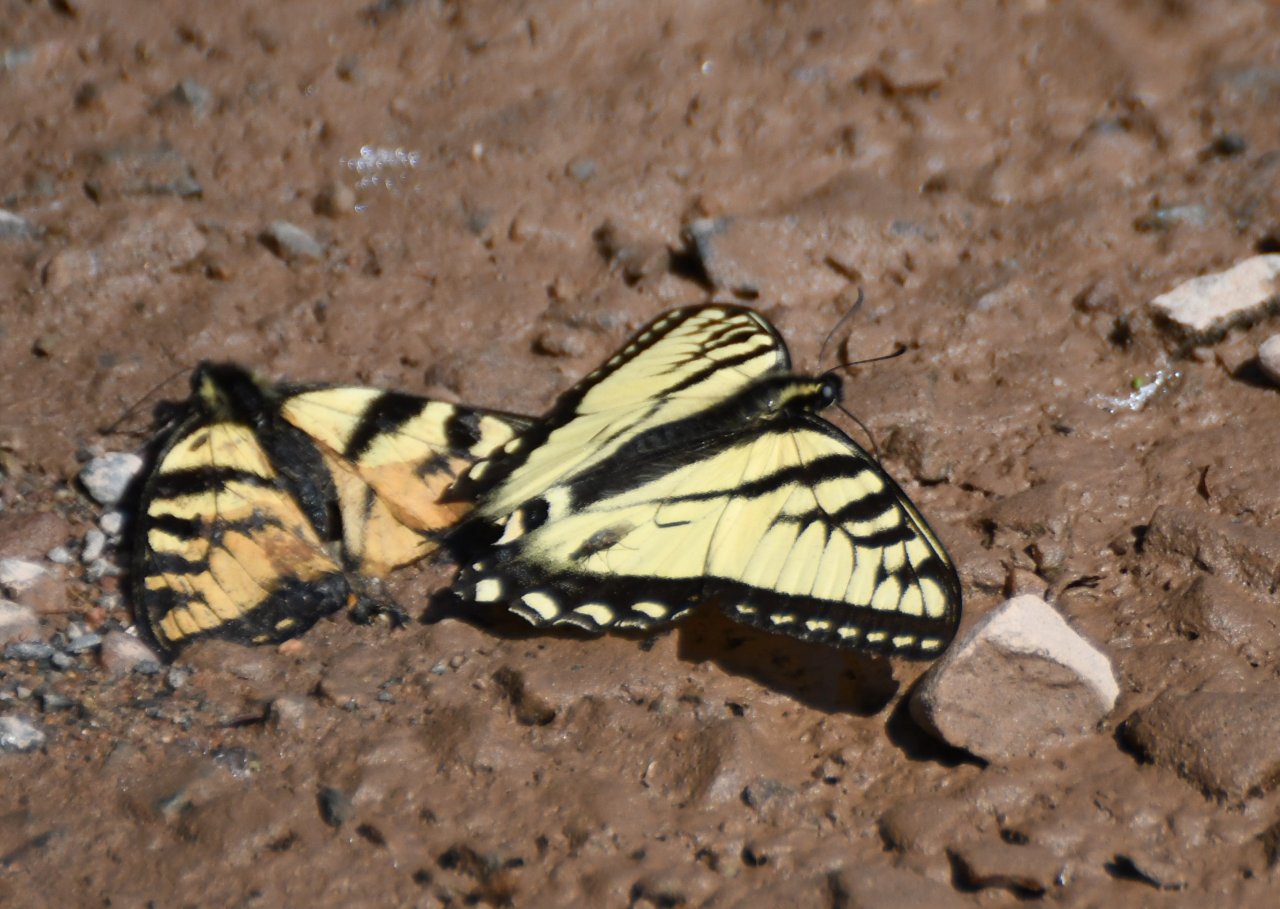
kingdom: Animalia
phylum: Arthropoda
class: Insecta
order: Lepidoptera
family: Papilionidae
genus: Pterourus
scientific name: Pterourus canadensis
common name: Canadian Tiger Swallowtail
